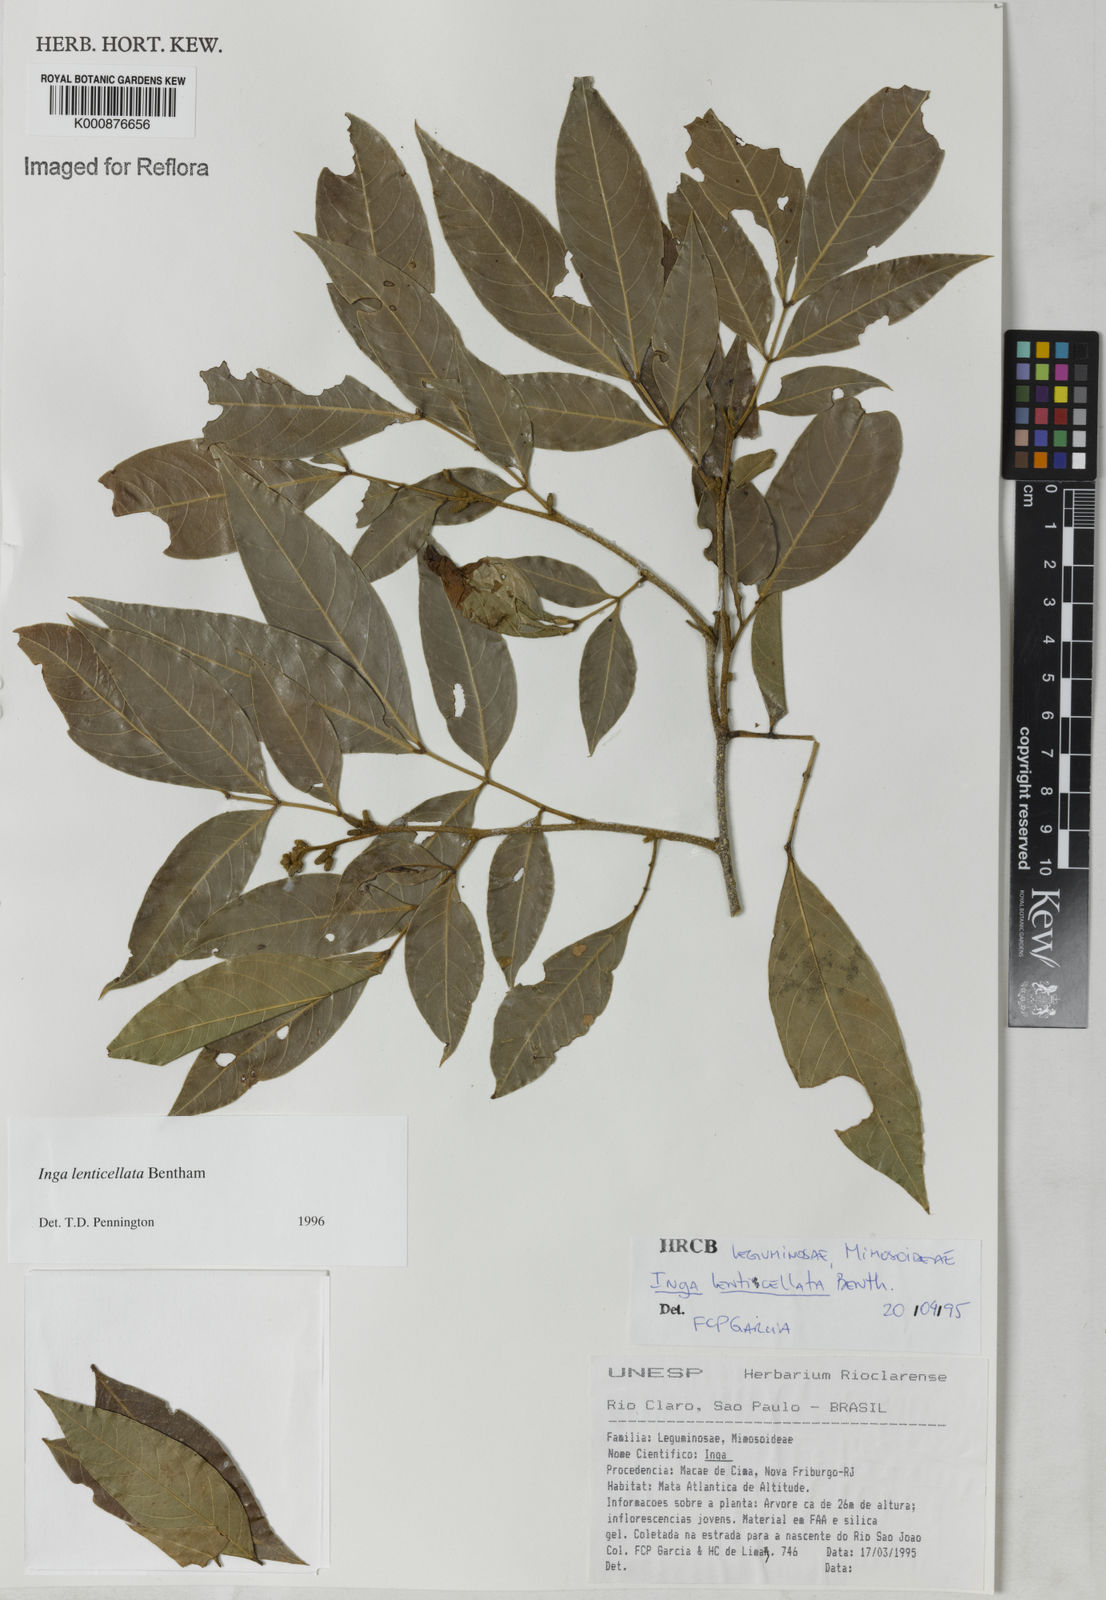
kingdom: Plantae
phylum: Tracheophyta
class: Magnoliopsida
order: Fabales
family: Fabaceae
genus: Inga
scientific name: Inga lenticellata
